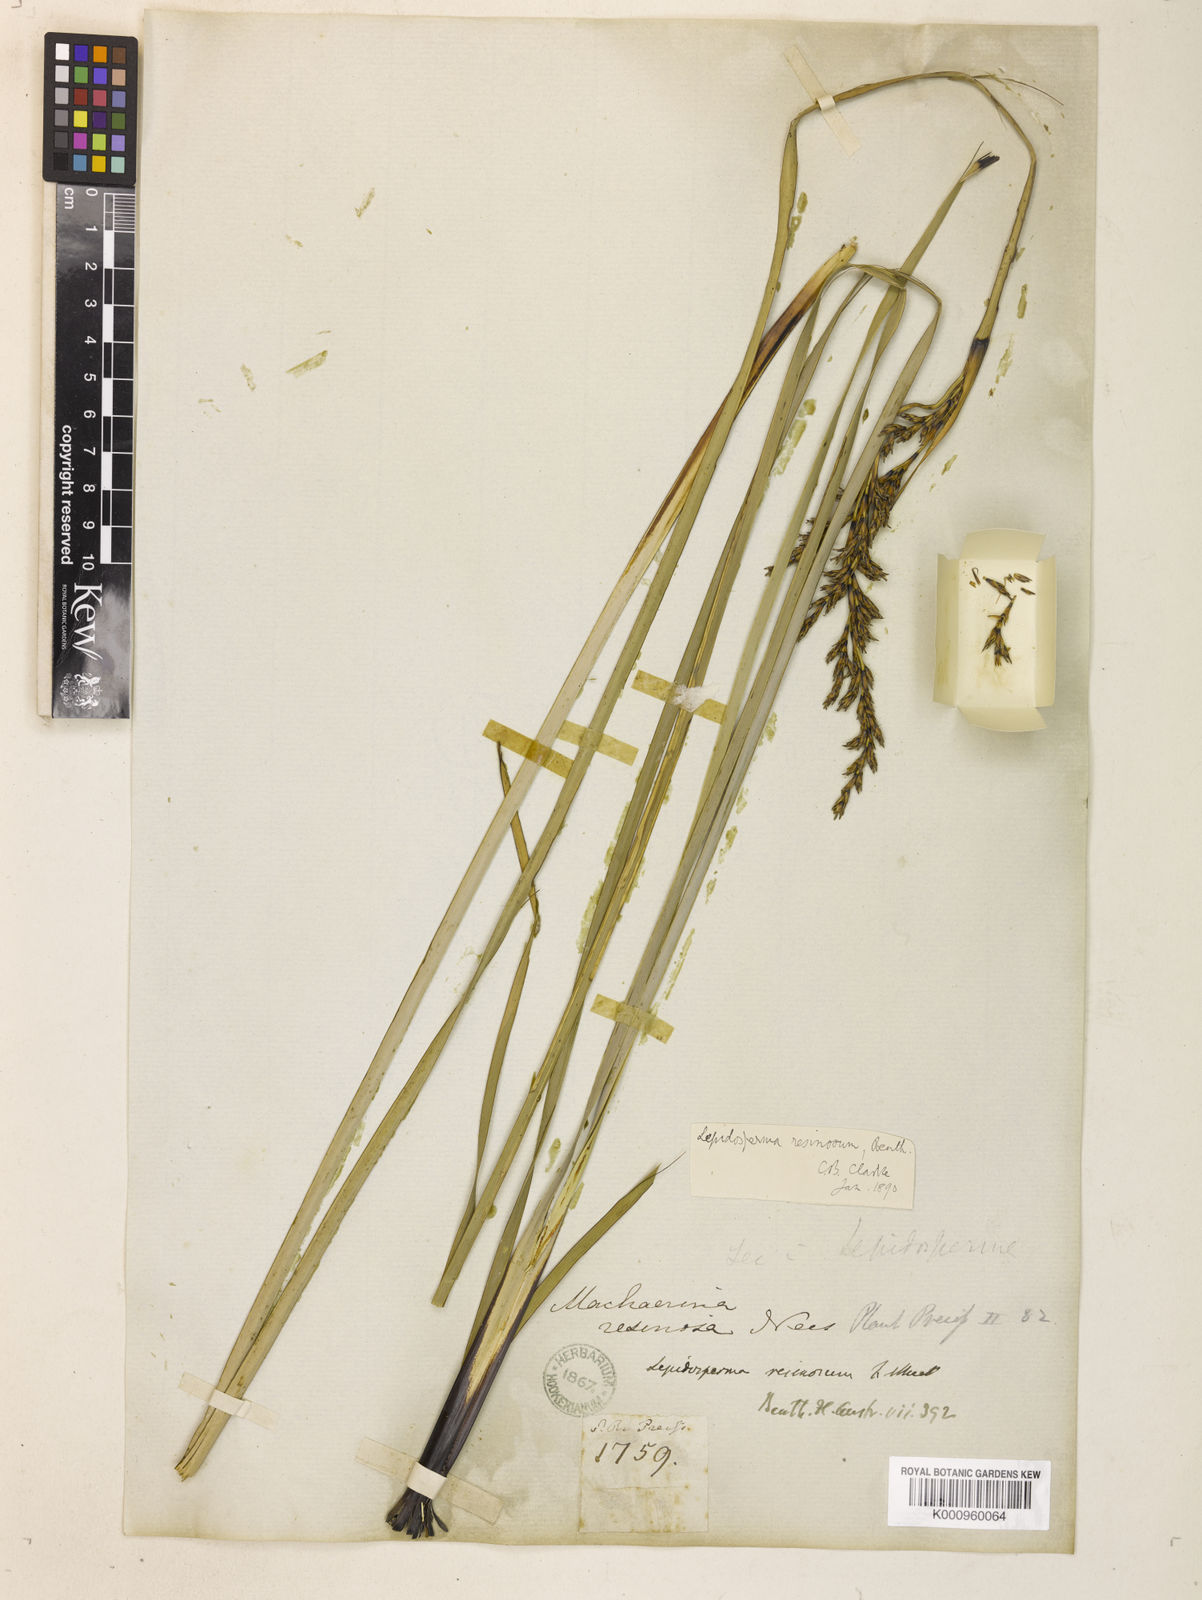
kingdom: Plantae
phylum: Tracheophyta
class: Liliopsida
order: Poales
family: Cyperaceae
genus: Lepidosperma
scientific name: Lepidosperma resinosum
